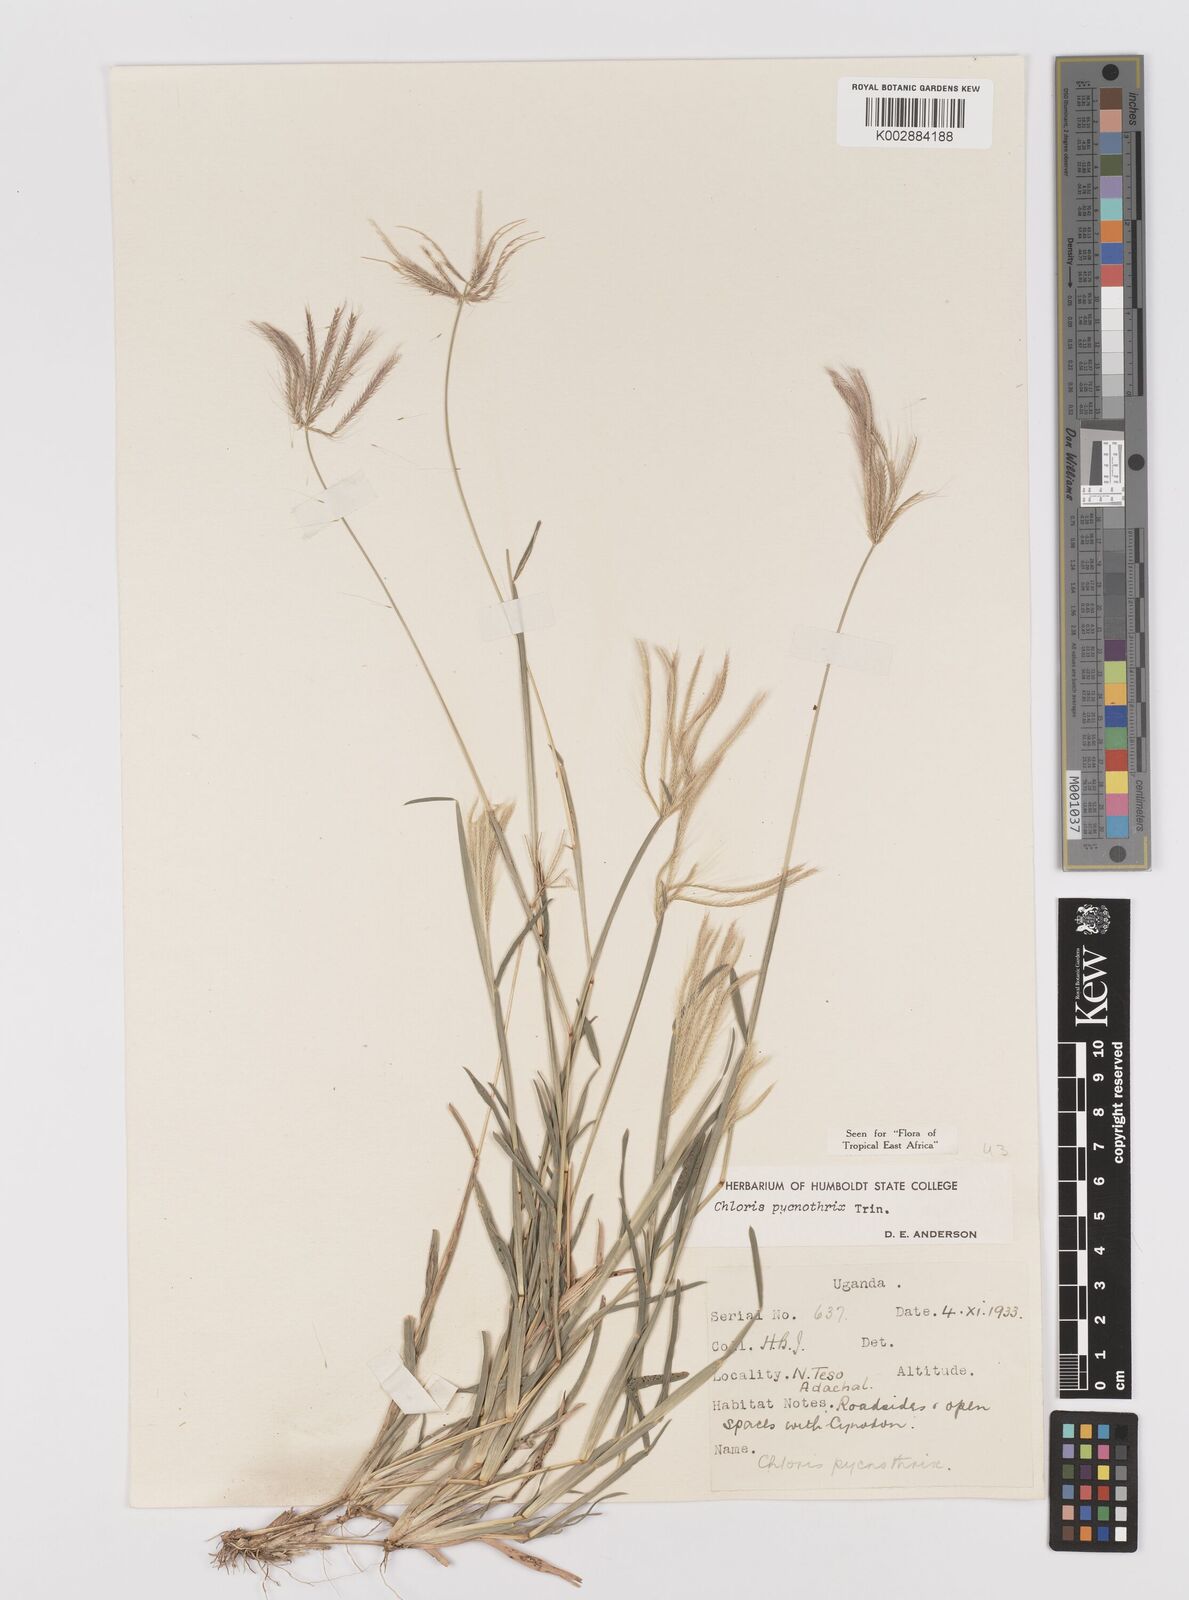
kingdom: Plantae
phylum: Tracheophyta
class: Liliopsida
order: Poales
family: Poaceae
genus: Chloris
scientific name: Chloris pycnothrix
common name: Spiderweb chloris
